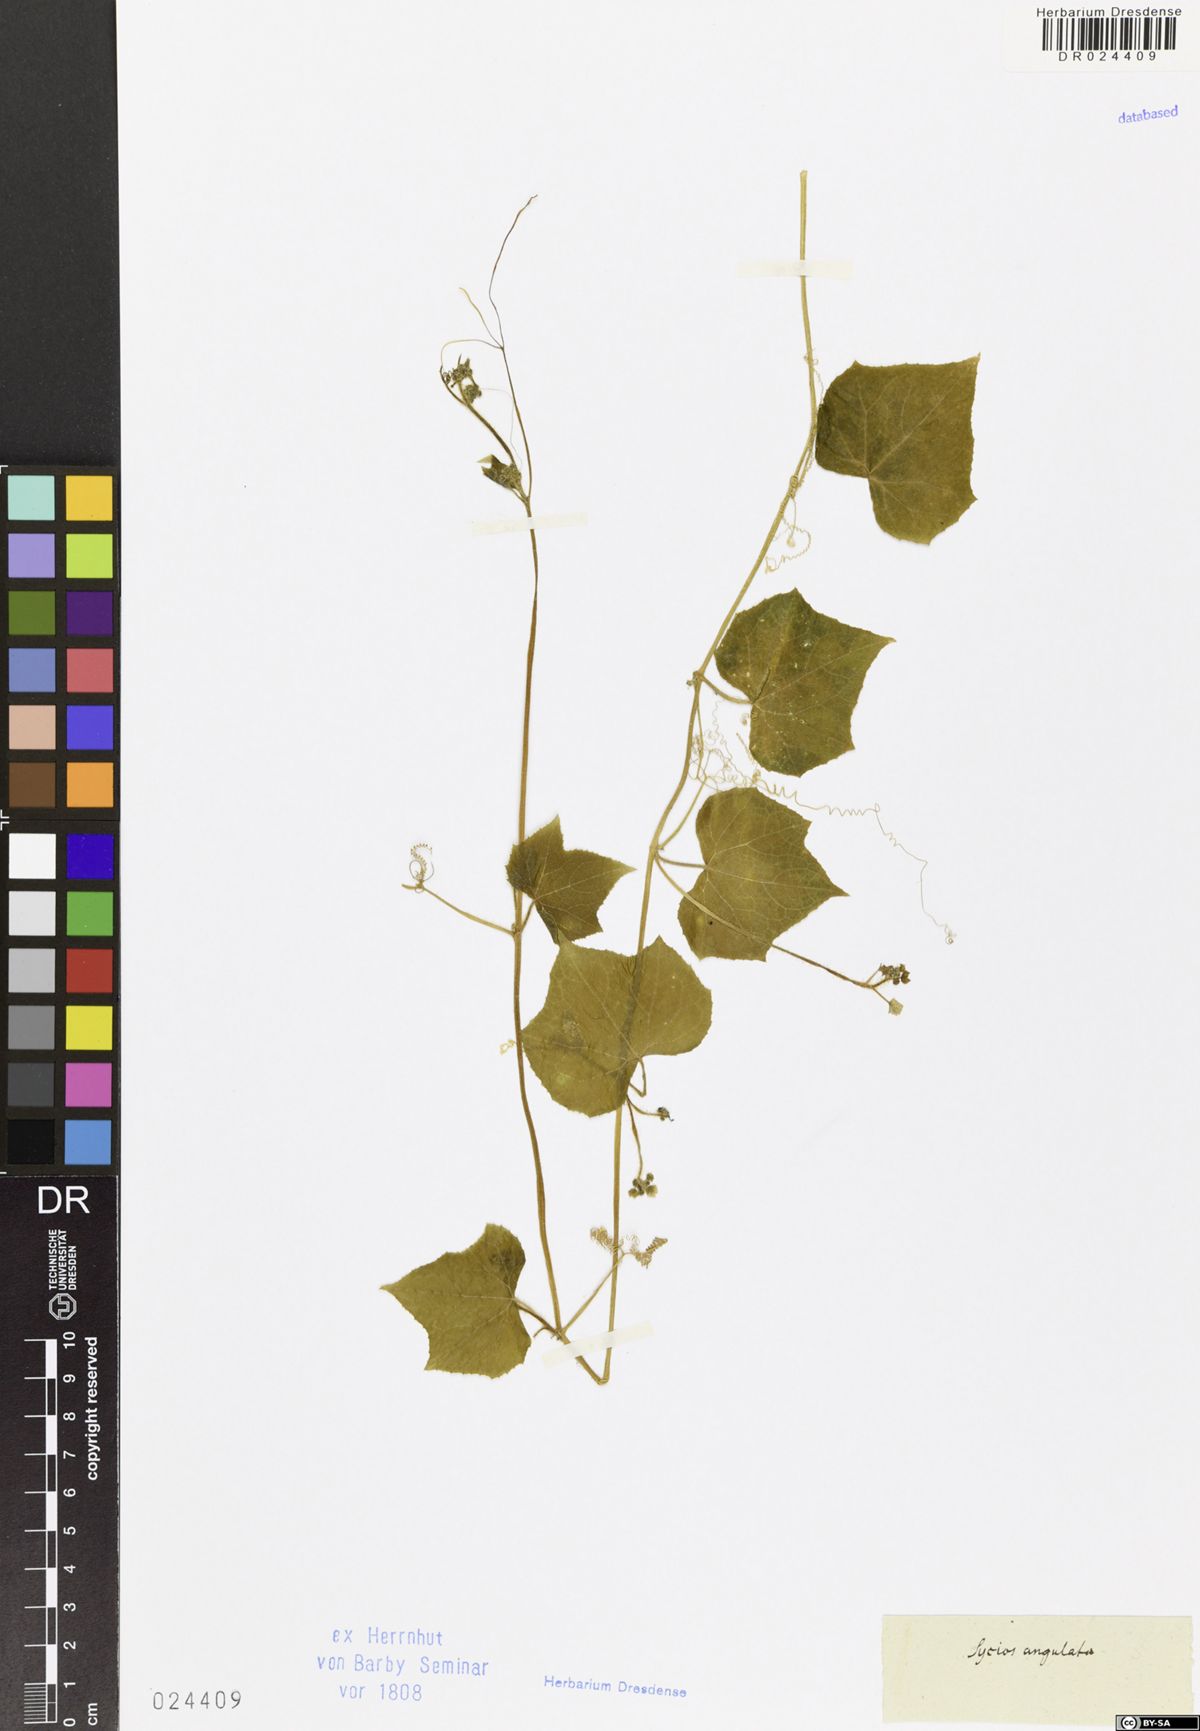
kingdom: Plantae
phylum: Tracheophyta
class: Magnoliopsida
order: Cucurbitales
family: Cucurbitaceae
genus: Sicyos
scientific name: Sicyos angulatus
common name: Angled burr cucumber
